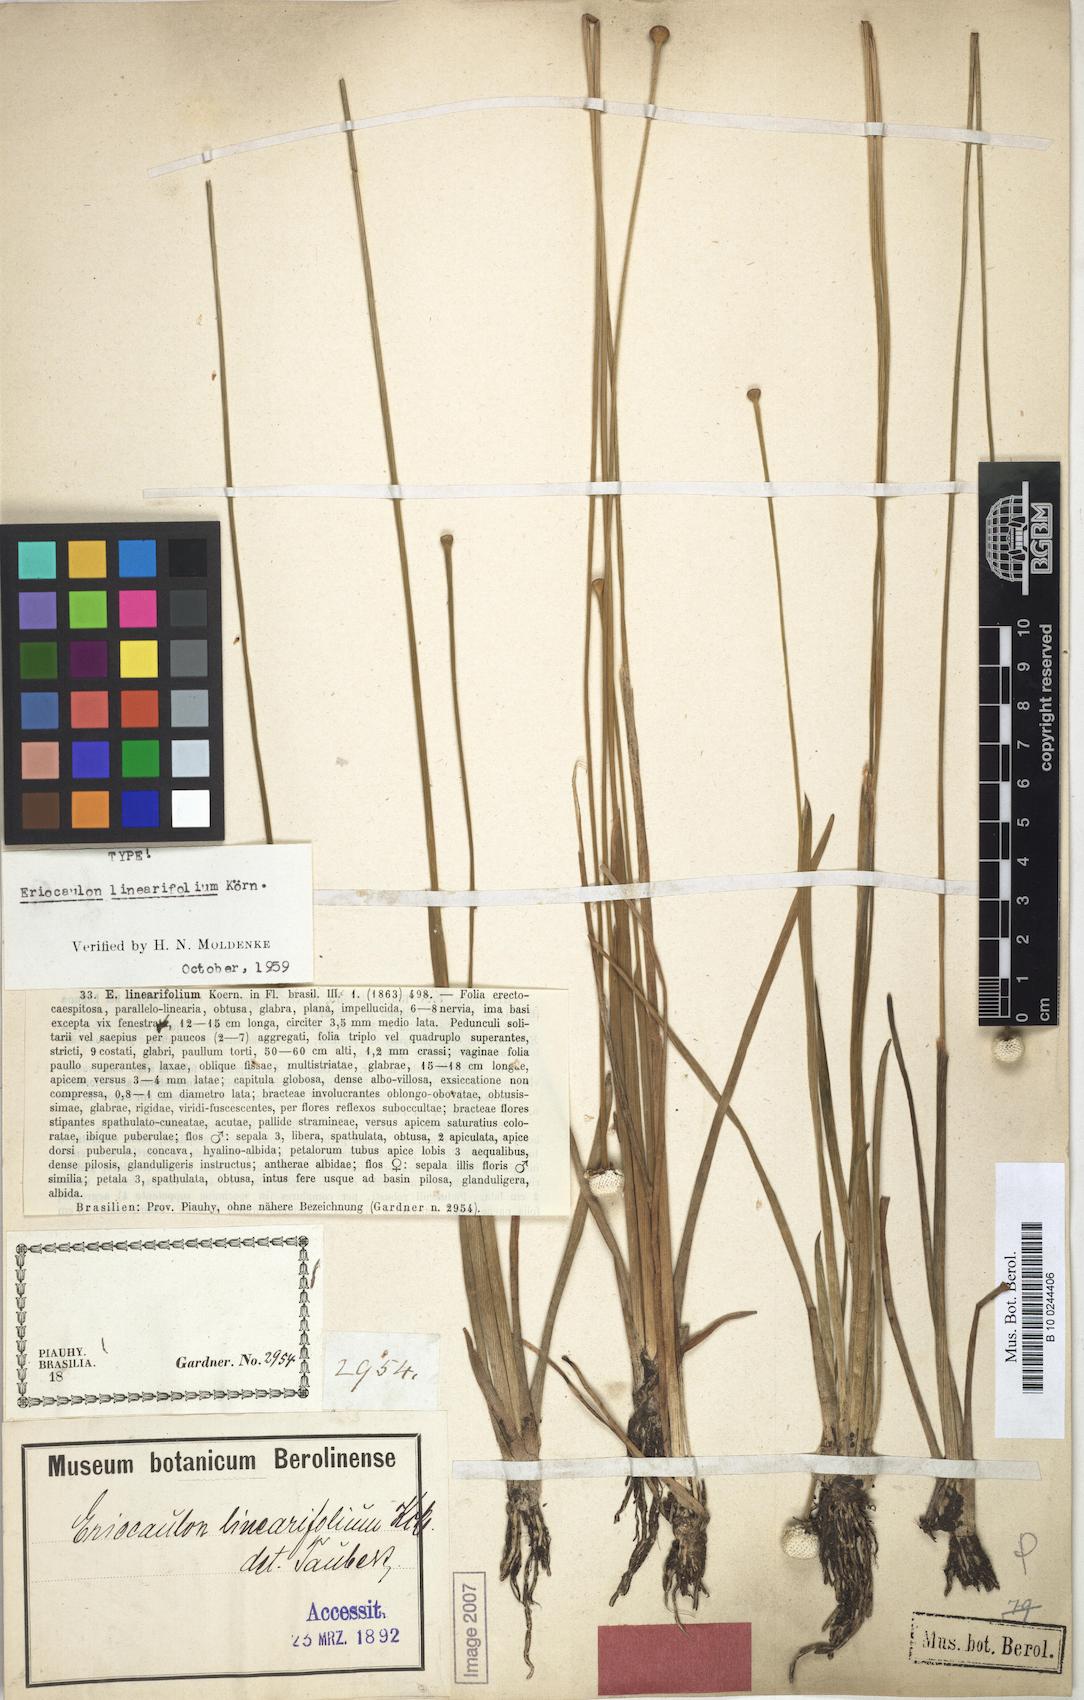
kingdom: Plantae
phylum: Tracheophyta
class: Liliopsida
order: Poales
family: Eriocaulaceae
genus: Eriocaulon
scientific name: Eriocaulon linearifolium
